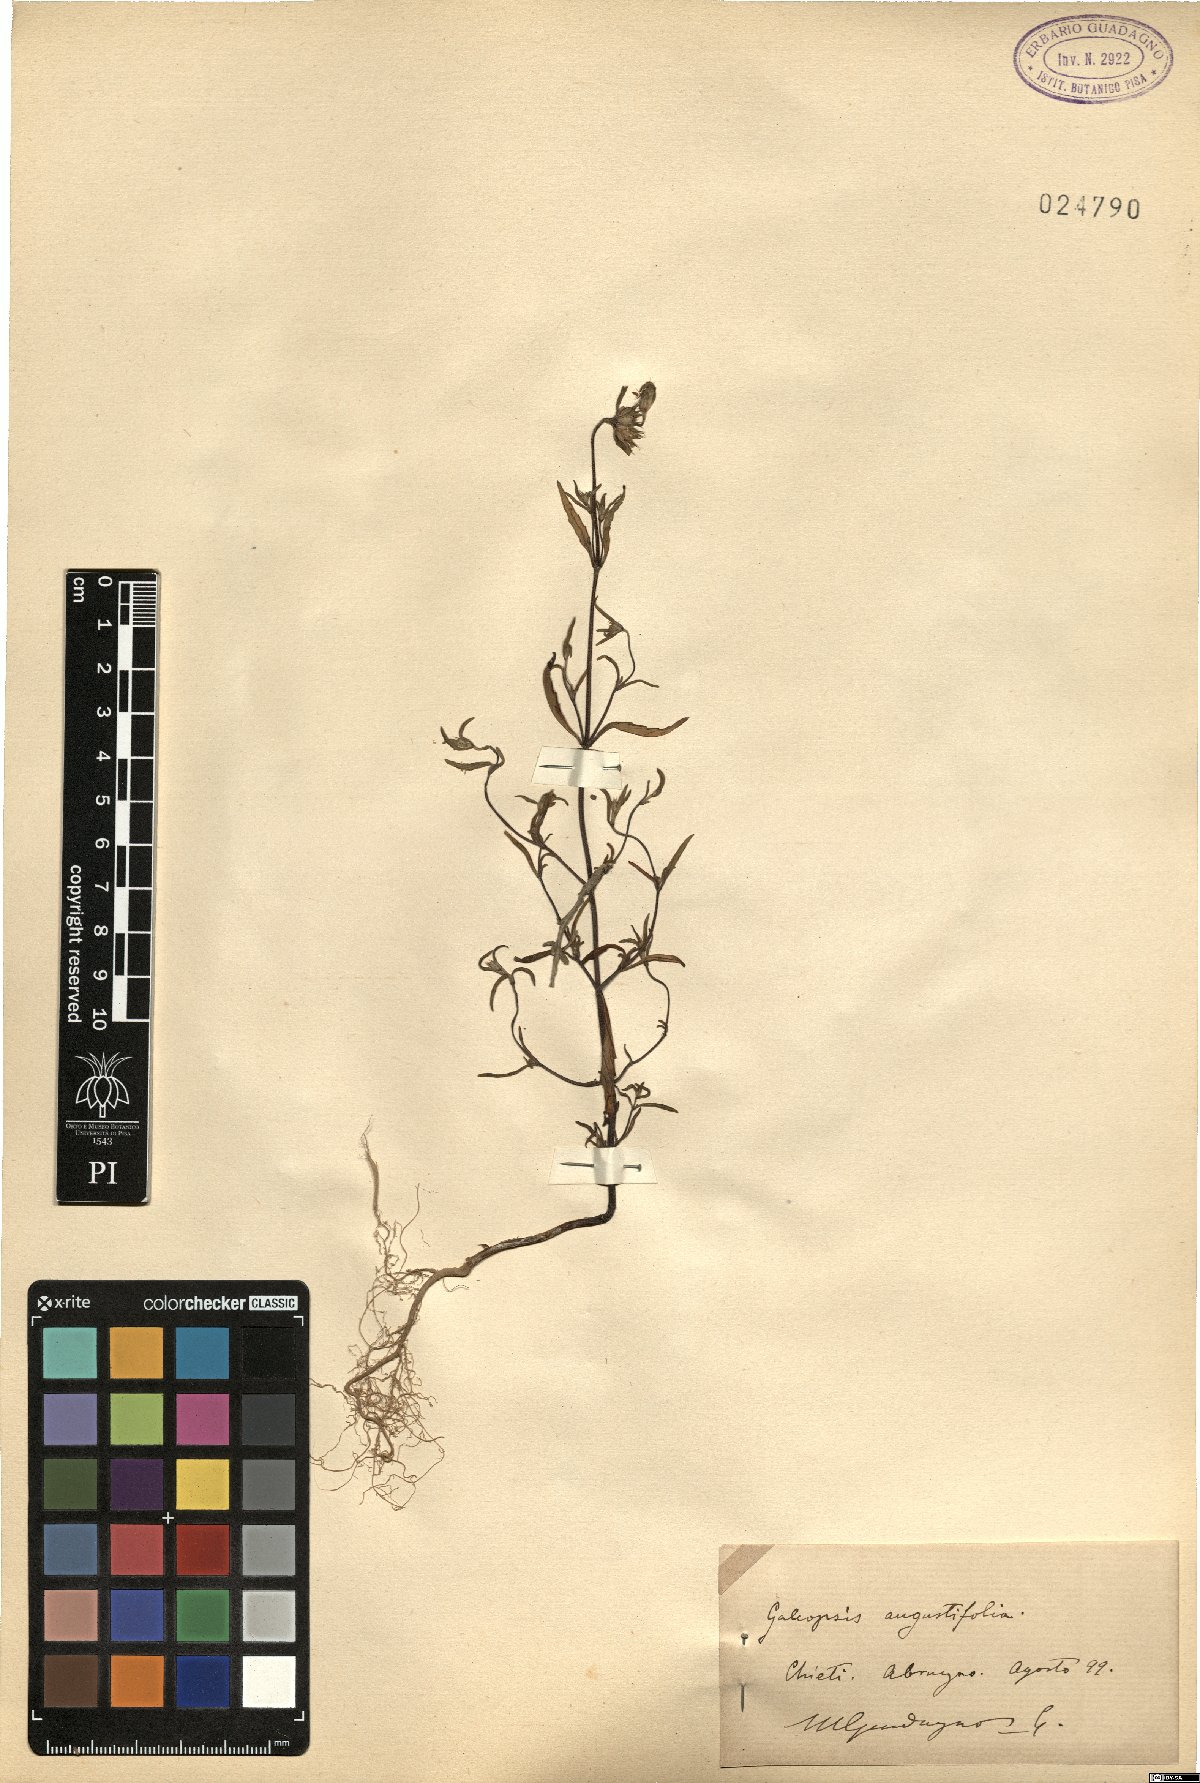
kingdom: Plantae
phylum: Tracheophyta
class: Magnoliopsida
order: Lamiales
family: Lamiaceae
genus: Galeopsis
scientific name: Galeopsis angustifolia
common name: Red hemp-nettle
